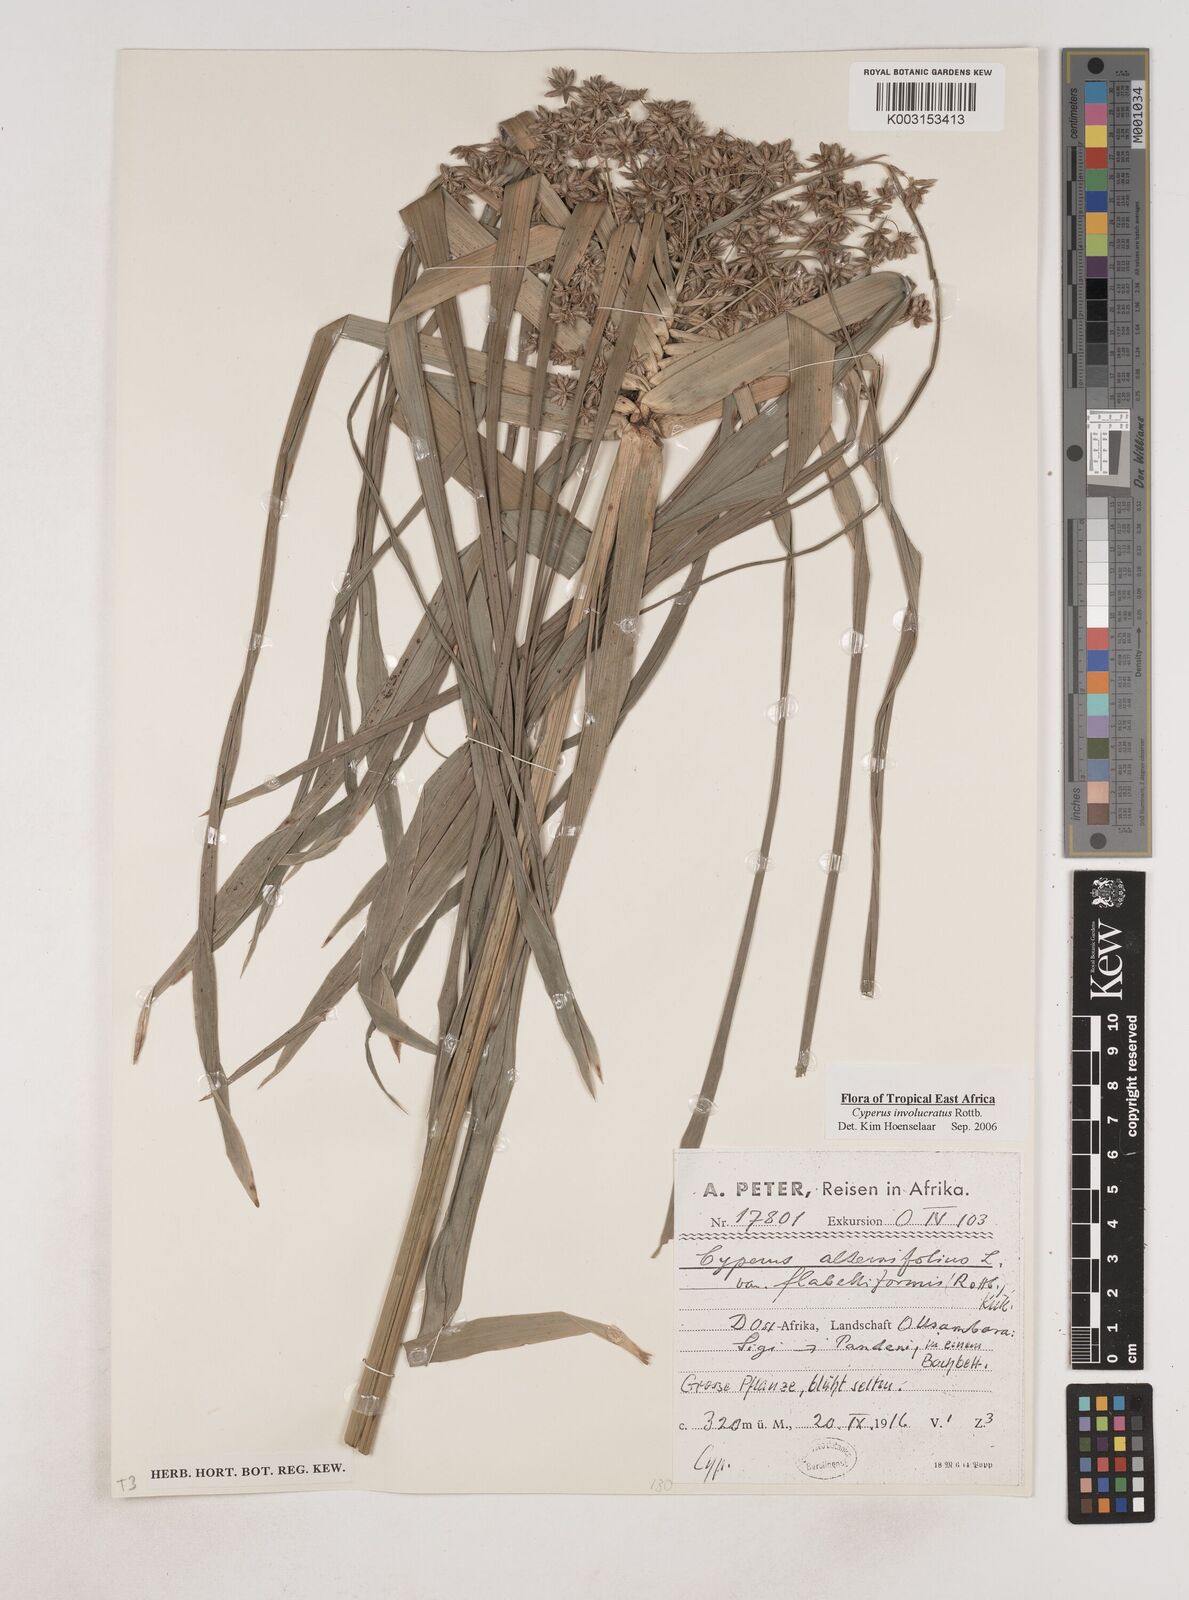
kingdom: Plantae
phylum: Tracheophyta
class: Liliopsida
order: Poales
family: Cyperaceae
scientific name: Cyperaceae
